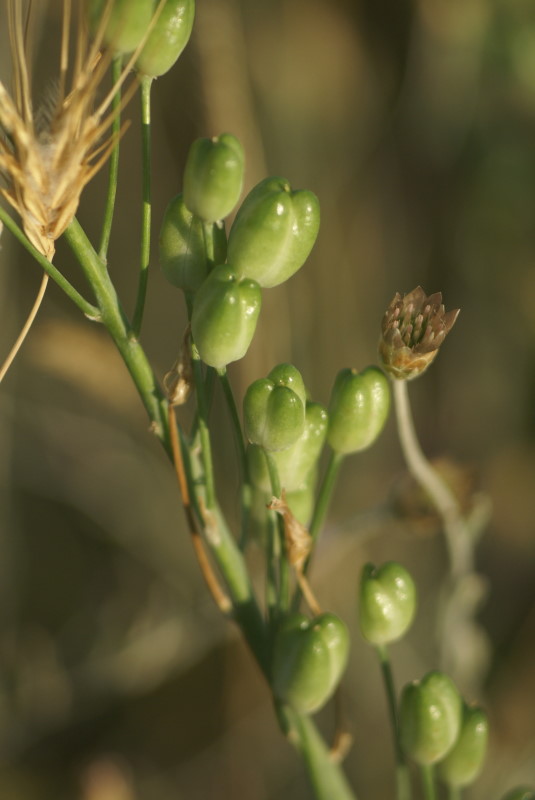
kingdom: Plantae
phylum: Tracheophyta
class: Liliopsida
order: Asparagales
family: Asparagaceae
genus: Ornithogalum
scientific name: Ornithogalum
